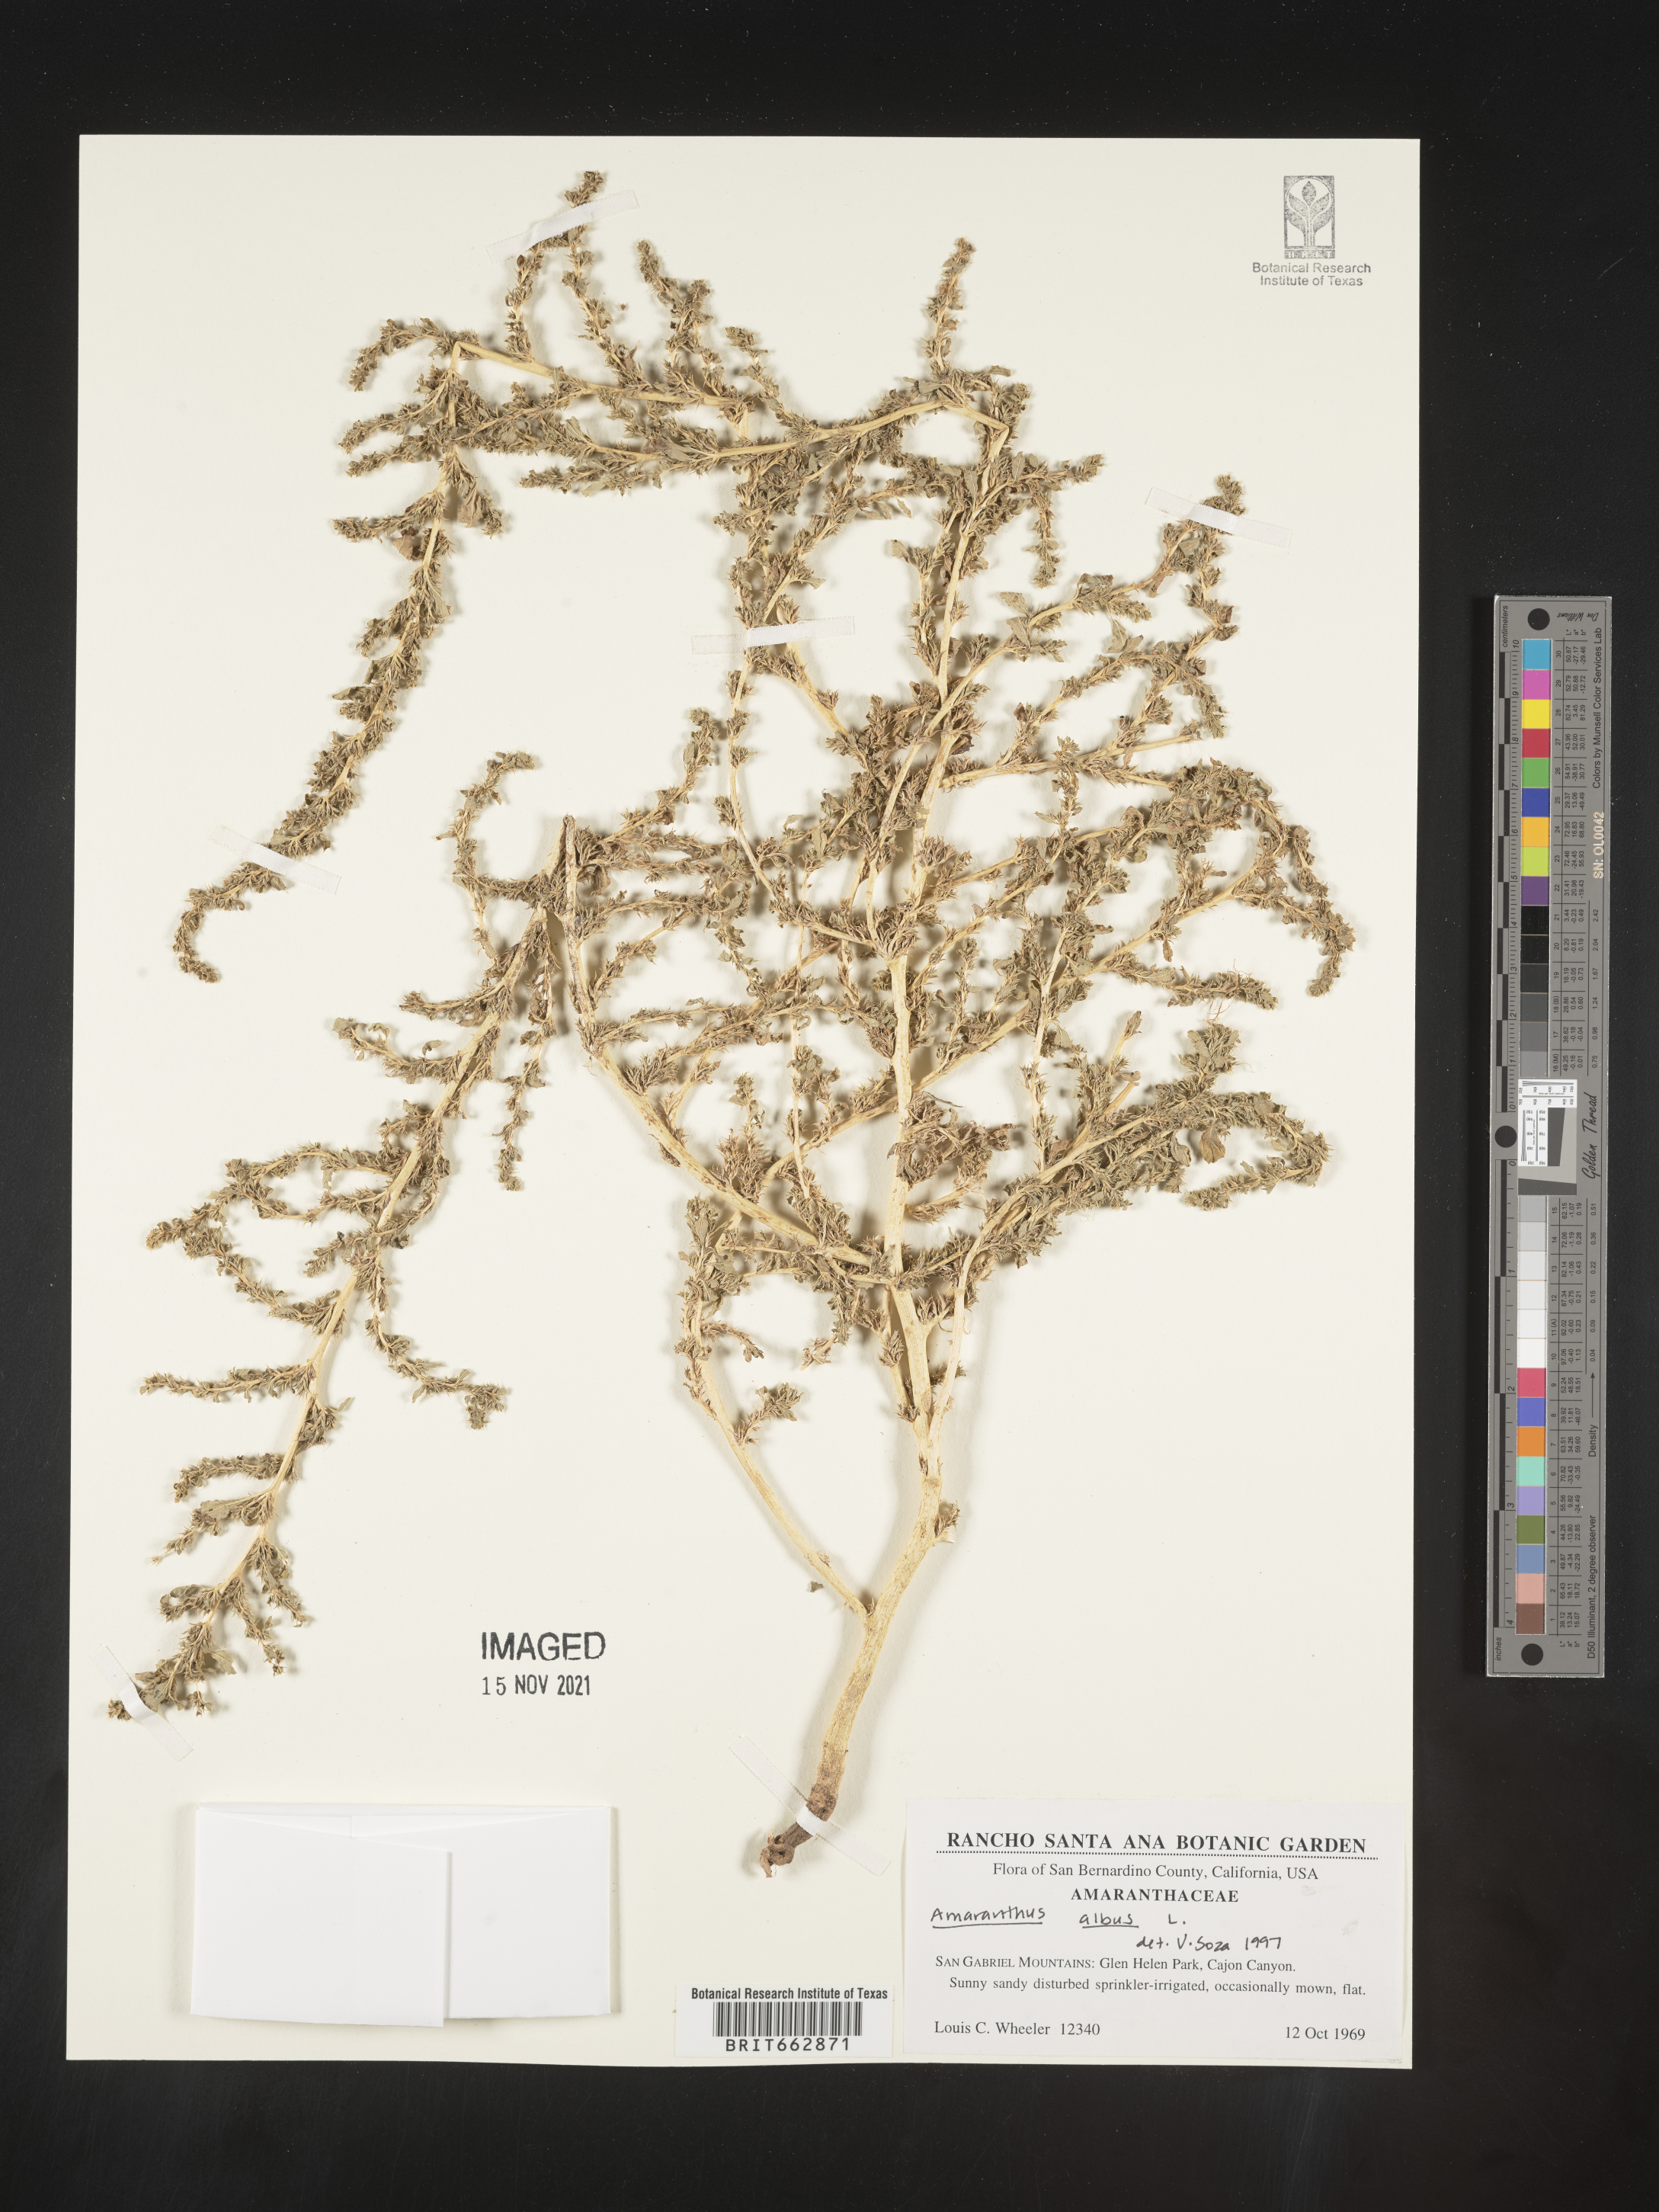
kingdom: Plantae
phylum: Tracheophyta
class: Magnoliopsida
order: Caryophyllales
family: Amaranthaceae
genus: Amaranthus
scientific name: Amaranthus albus
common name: White pigweed
